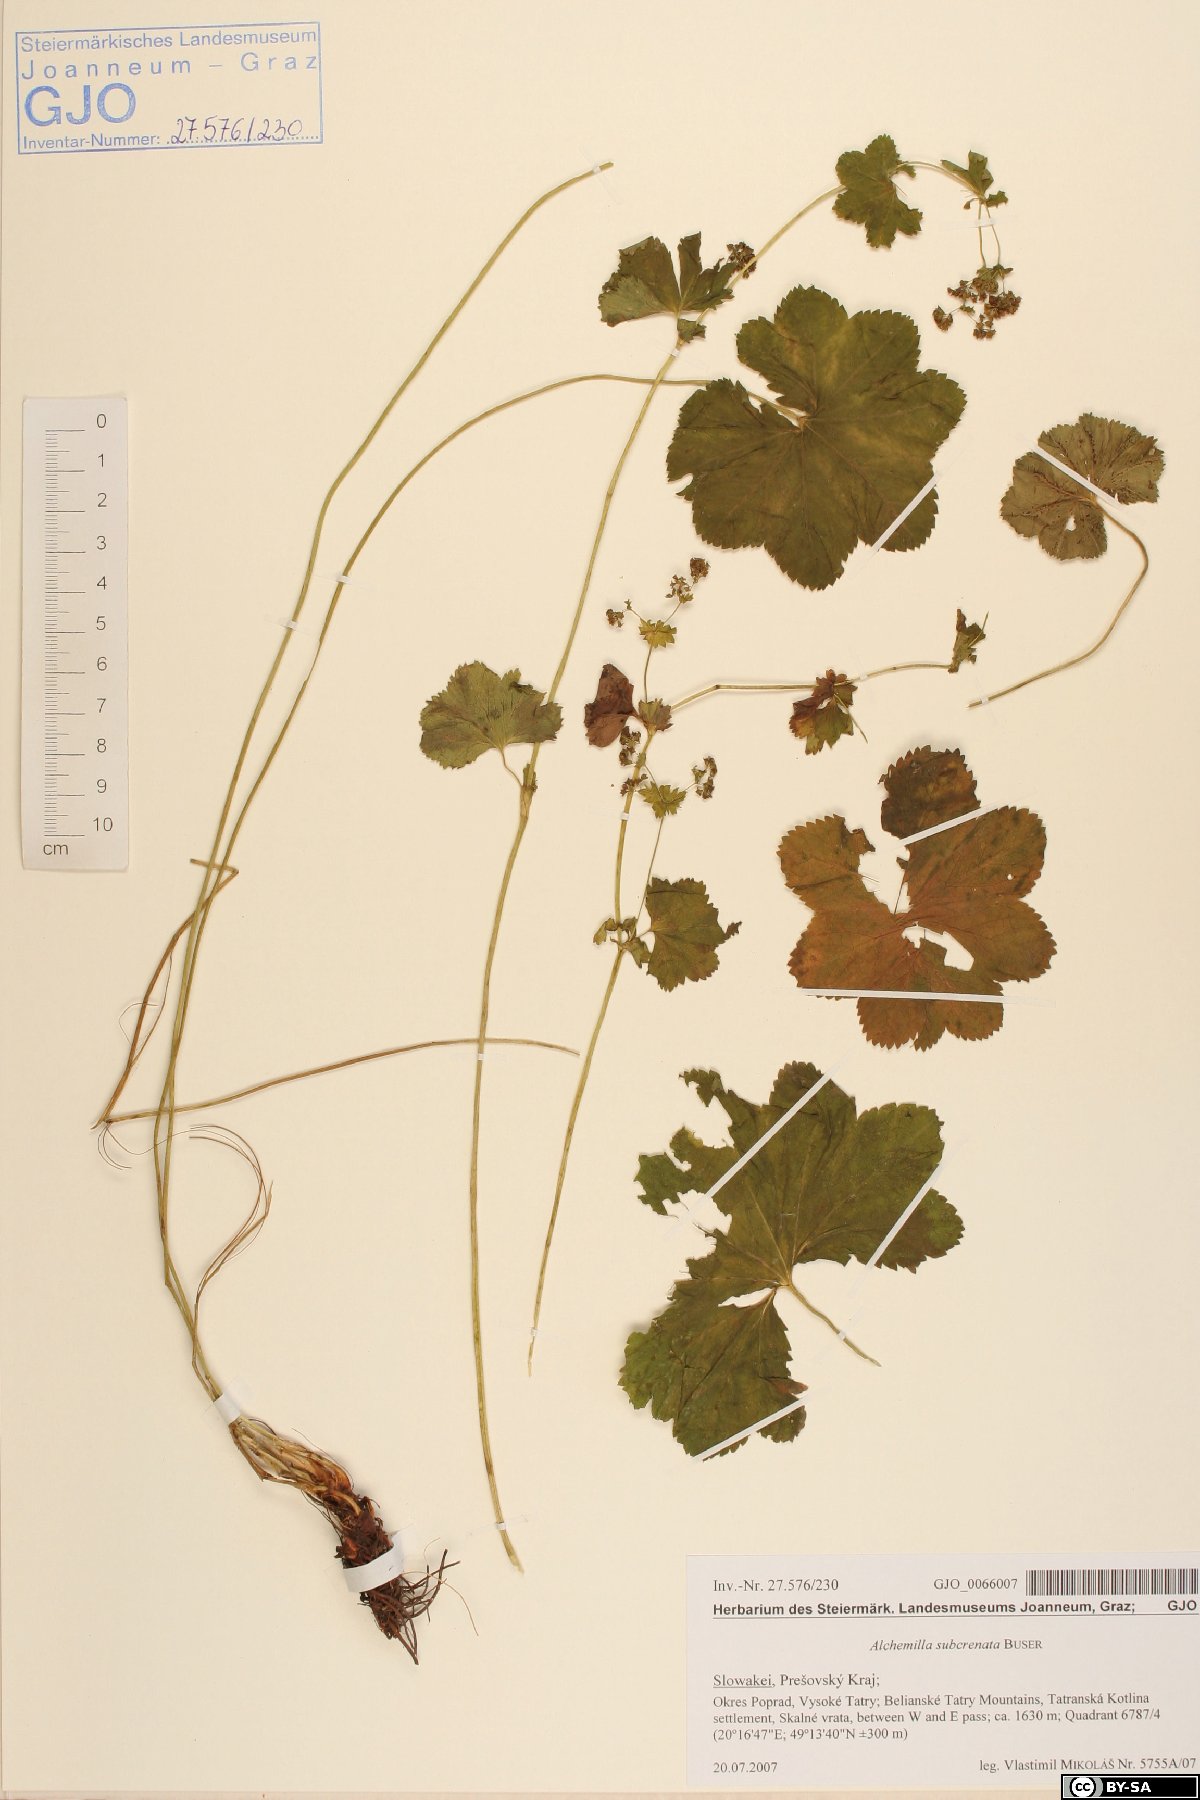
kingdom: Plantae
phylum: Tracheophyta
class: Magnoliopsida
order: Rosales
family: Rosaceae
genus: Alchemilla
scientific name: Alchemilla subcrenata
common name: Broadtooth lady's mantle
